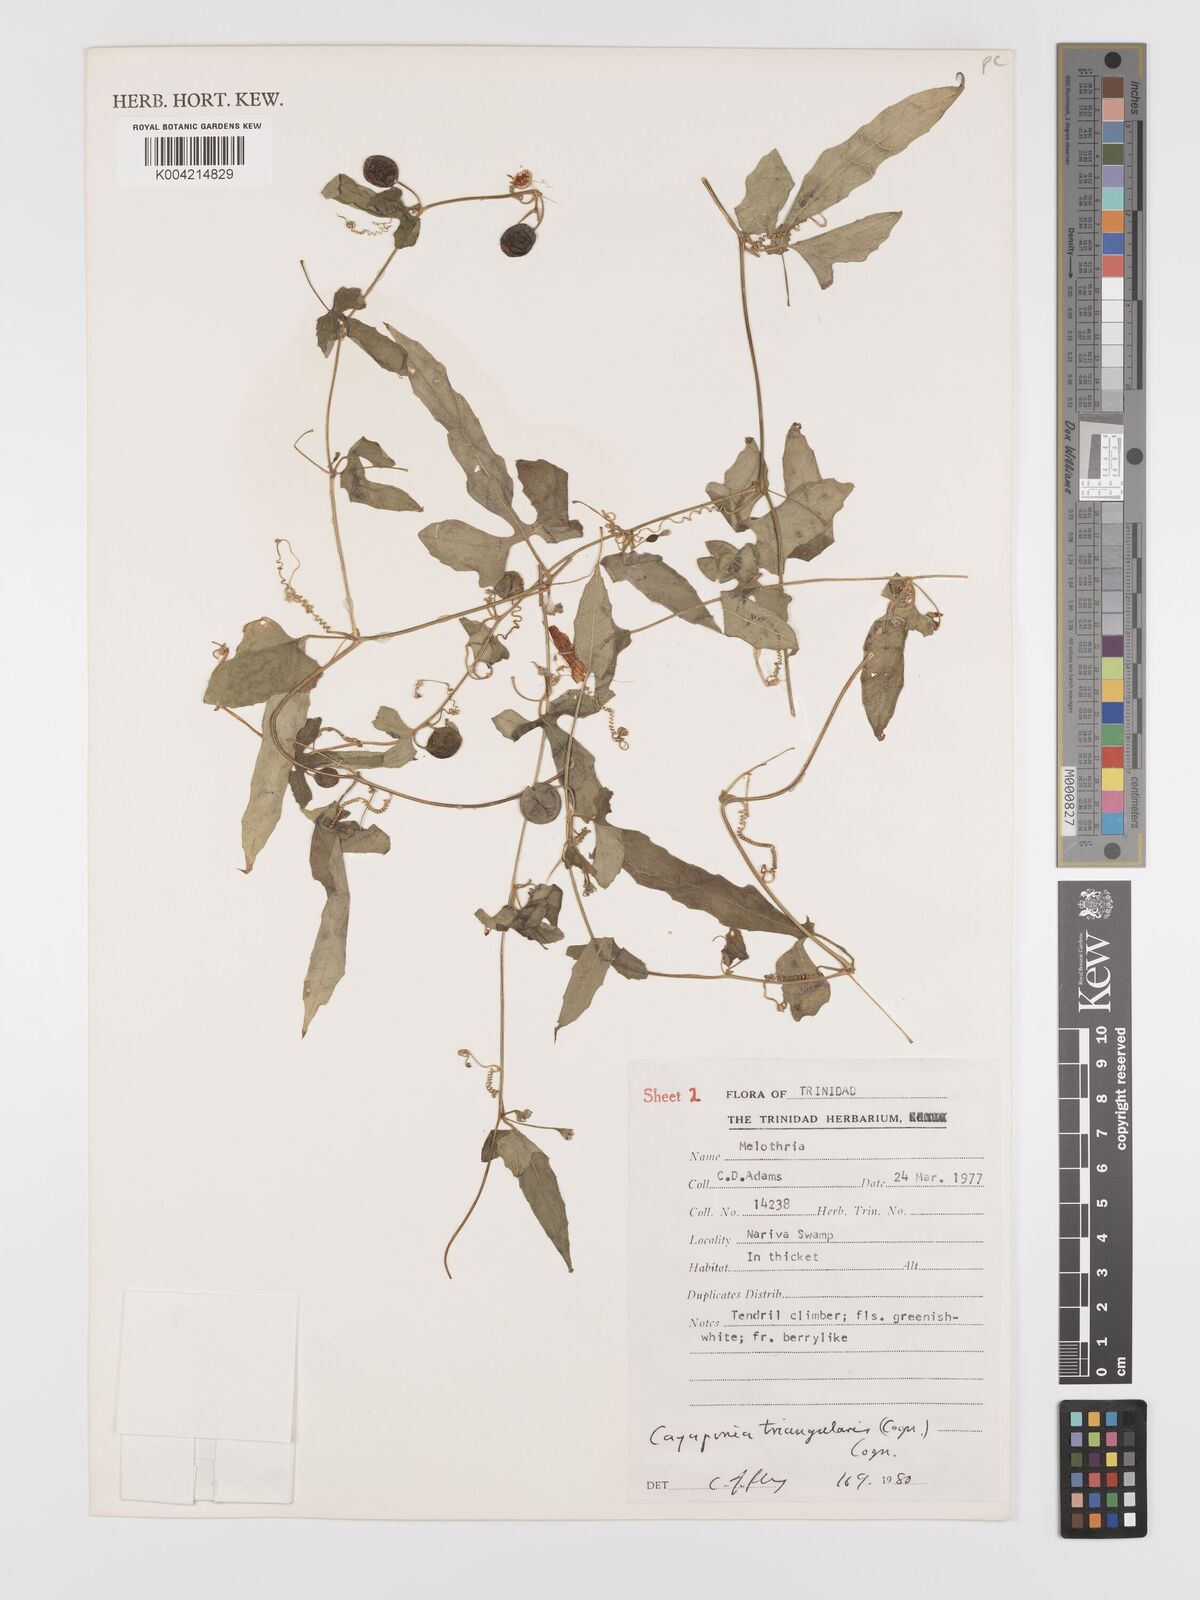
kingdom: Plantae
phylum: Tracheophyta
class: Magnoliopsida
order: Cucurbitales
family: Cucurbitaceae
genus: Cayaponia
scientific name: Cayaponia triangularis
